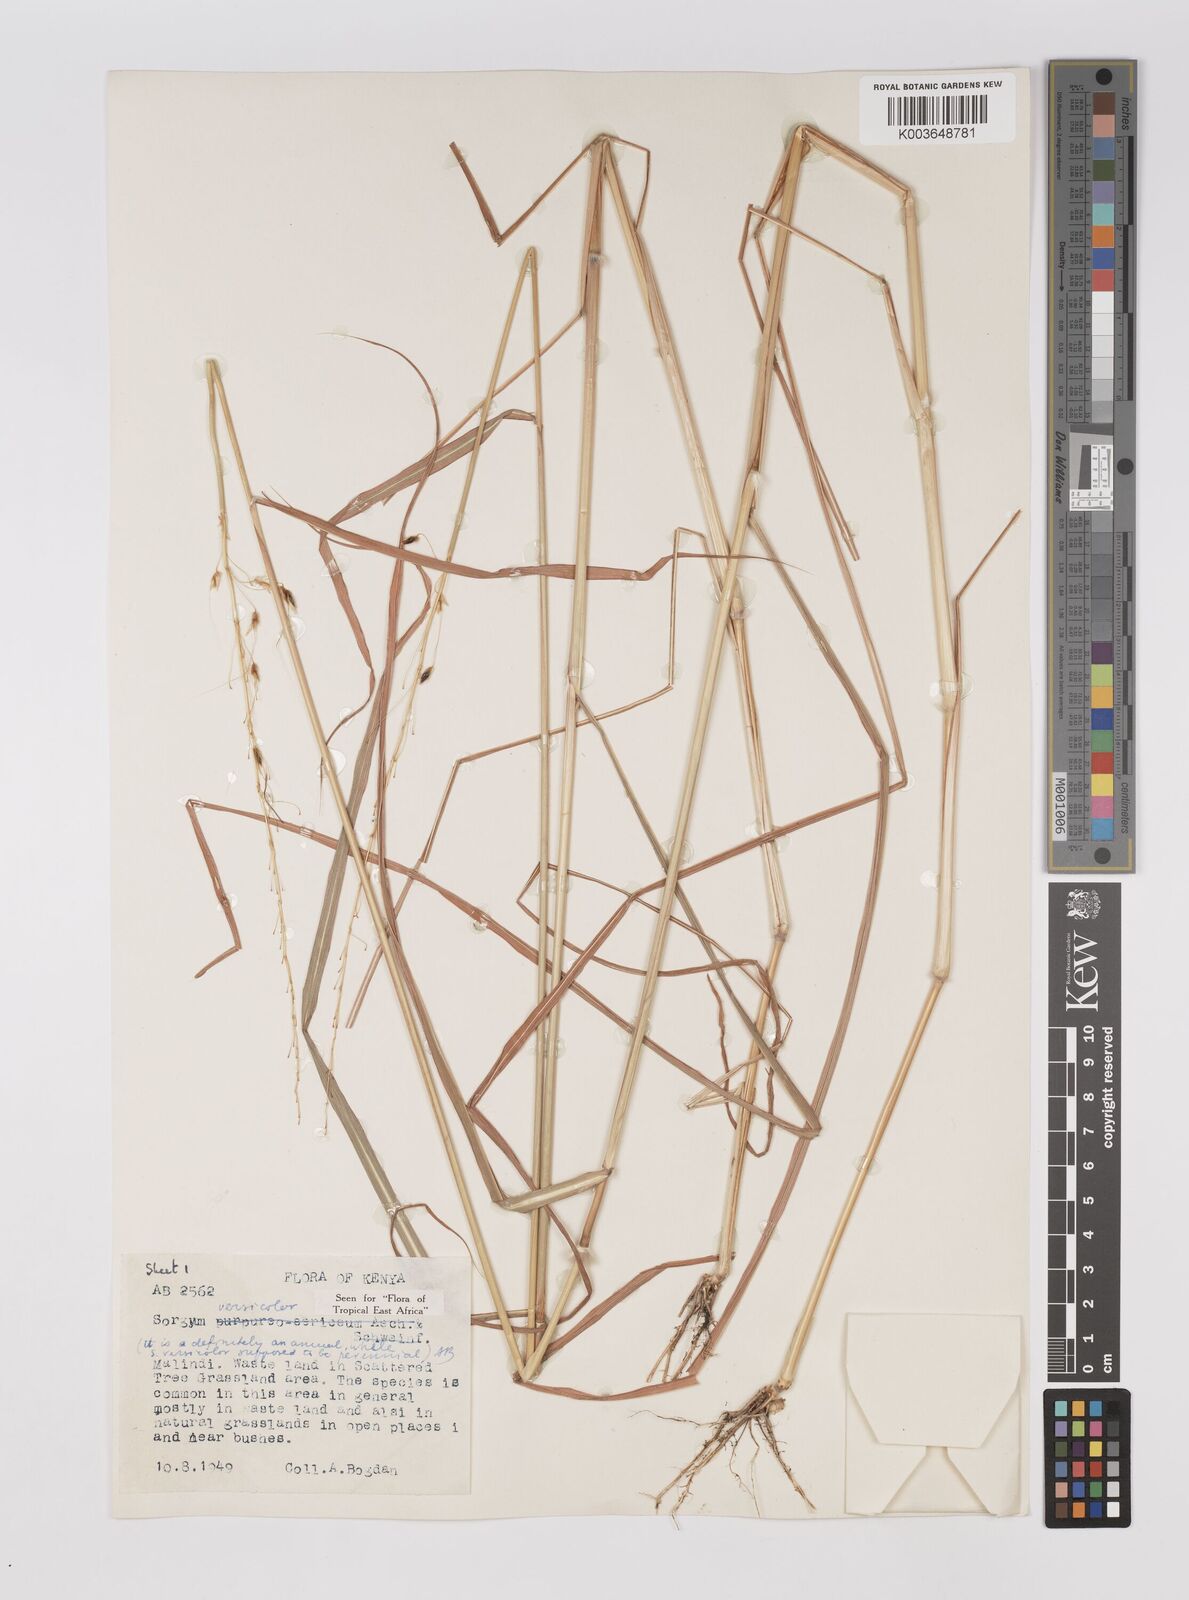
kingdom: Plantae
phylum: Tracheophyta
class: Liliopsida
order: Poales
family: Poaceae
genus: Sarga
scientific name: Sarga versicolor
